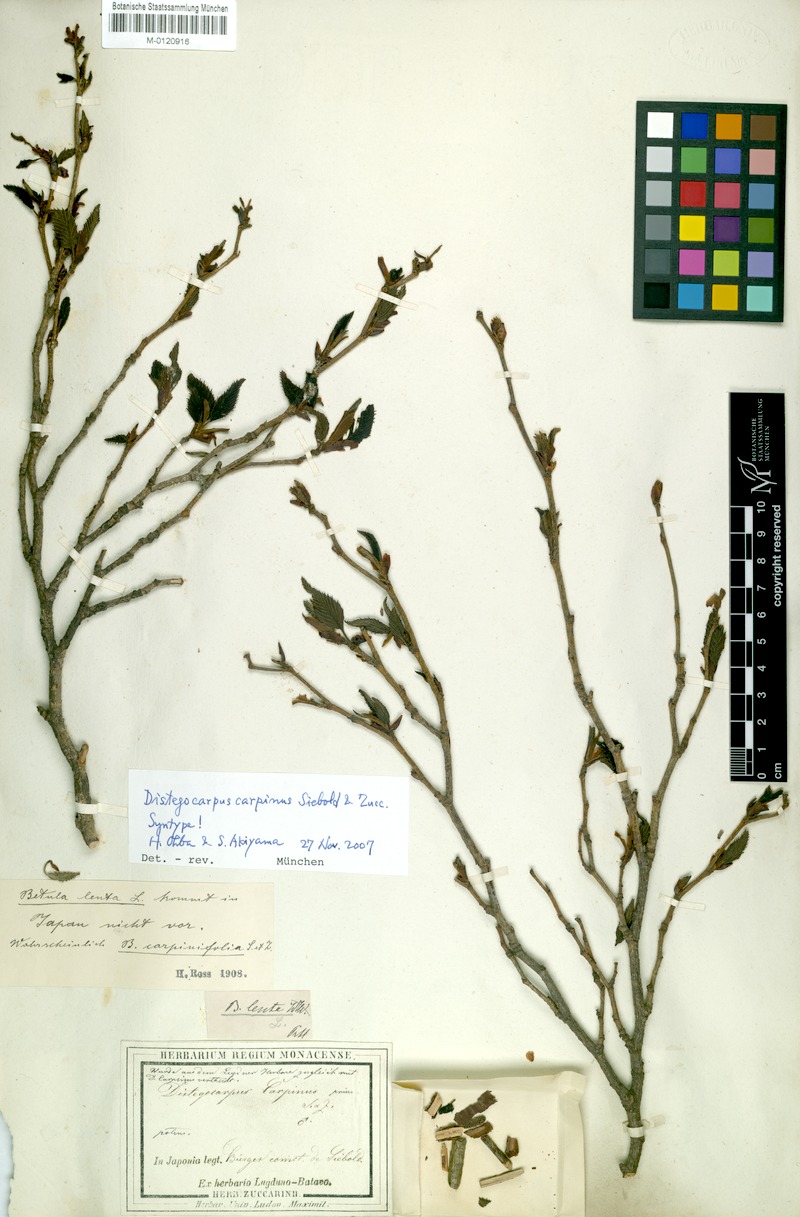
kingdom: Plantae
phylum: Tracheophyta
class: Magnoliopsida
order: Fagales
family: Betulaceae
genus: Carpinus
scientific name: Carpinus japonica
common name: Japanese hornbeam
